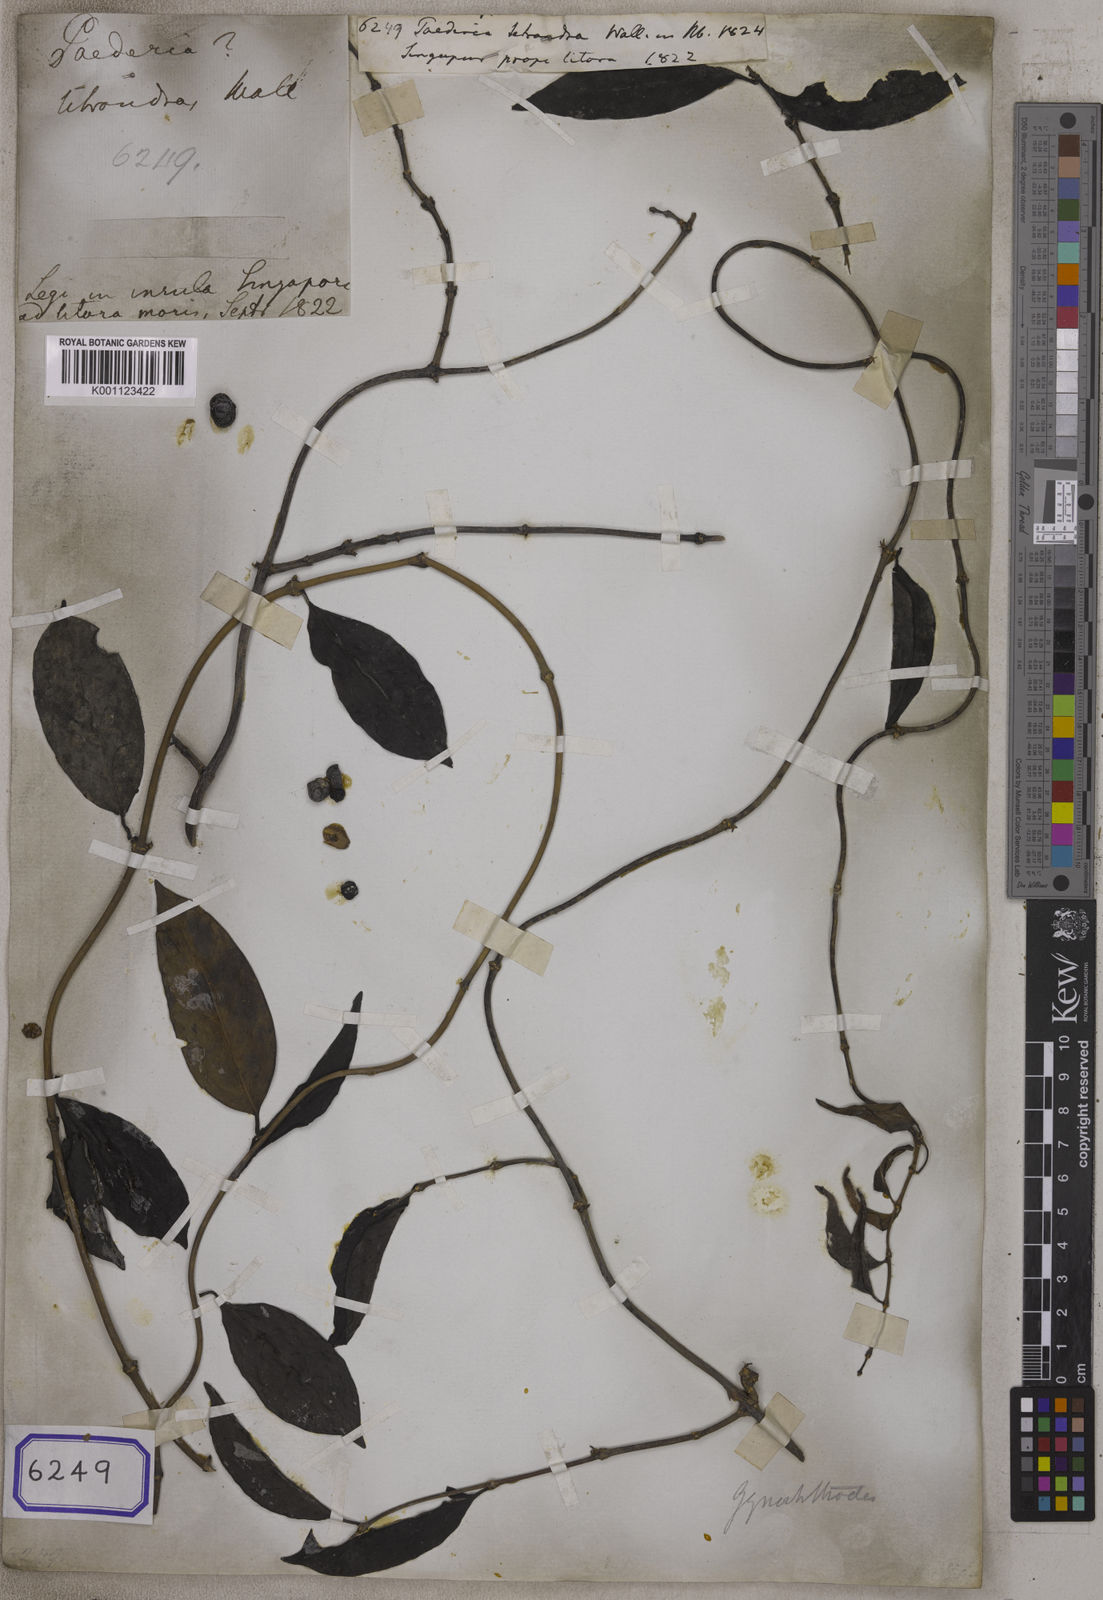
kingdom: Plantae
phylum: Tracheophyta
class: Magnoliopsida
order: Gentianales
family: Rubiaceae
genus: Gynochthodes
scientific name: Gynochthodes coriacea
